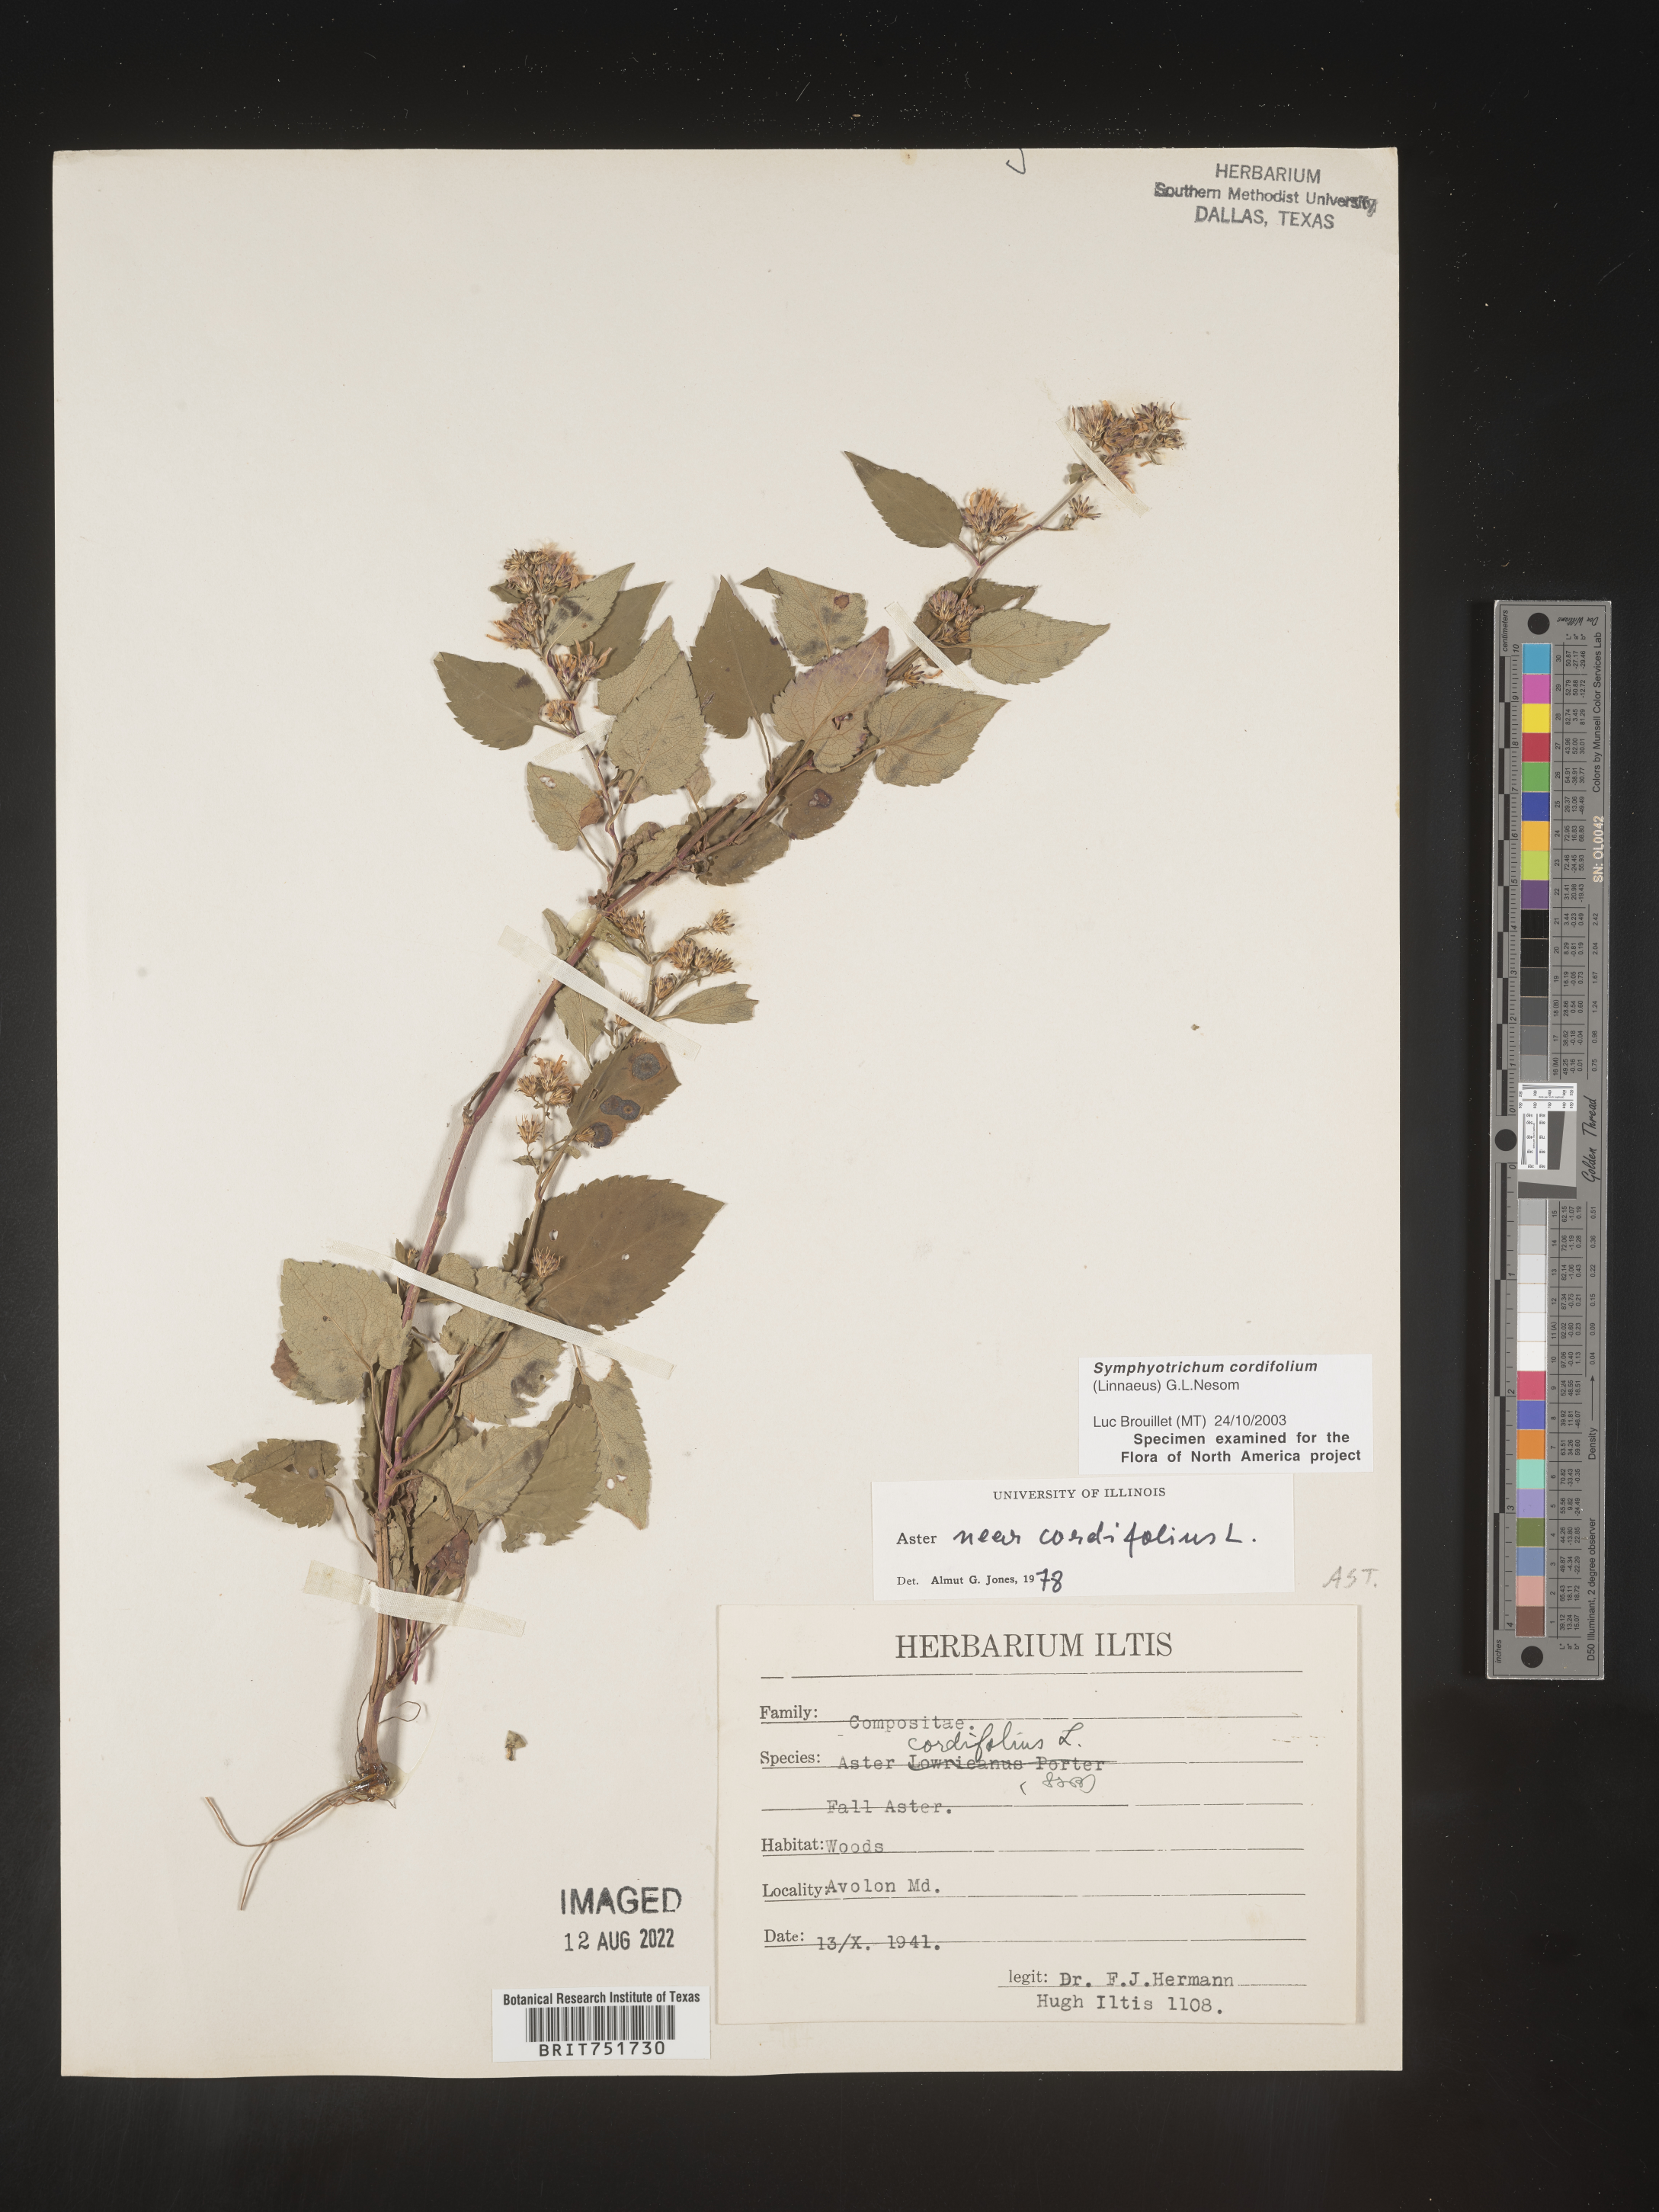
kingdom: Plantae
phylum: Tracheophyta
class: Magnoliopsida
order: Asterales
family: Asteraceae
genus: Symphyotrichum
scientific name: Symphyotrichum cordifolium
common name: Beeweed
